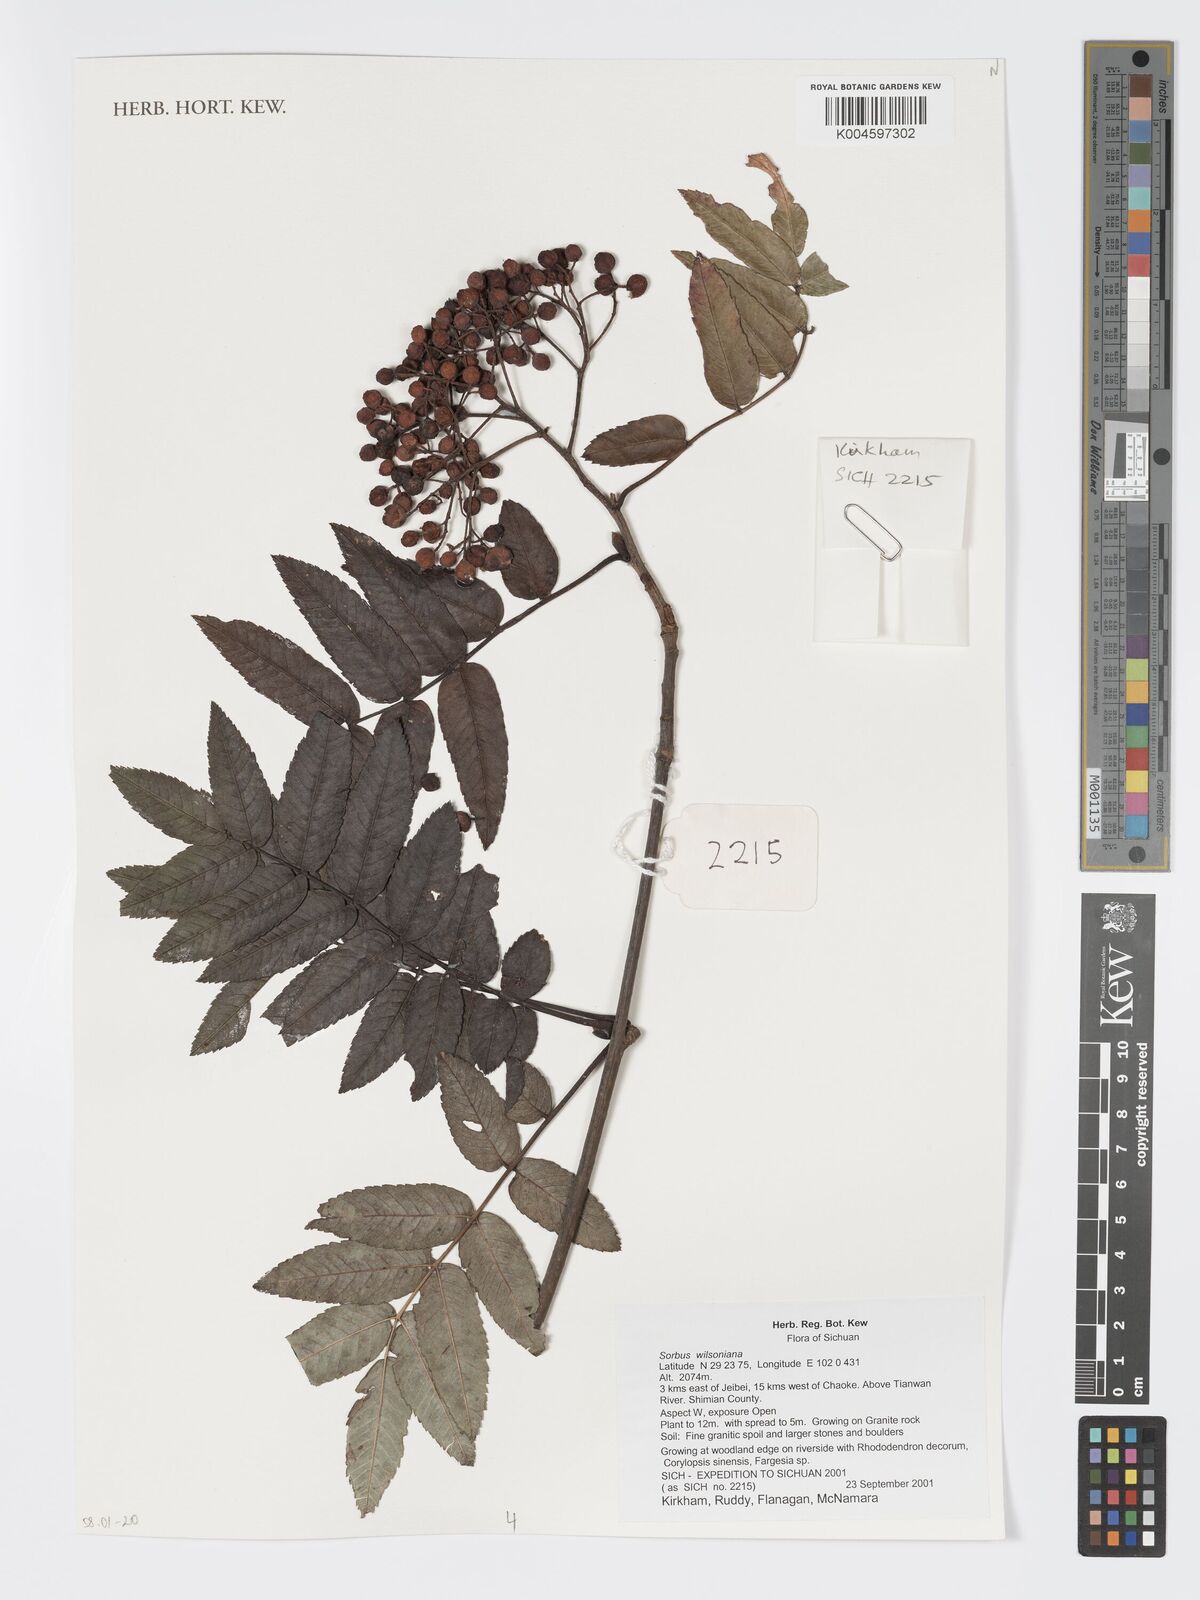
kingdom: Plantae
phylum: Tracheophyta
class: Magnoliopsida
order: Rosales
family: Rosaceae
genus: Sorbus
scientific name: Sorbus wilsoniana
